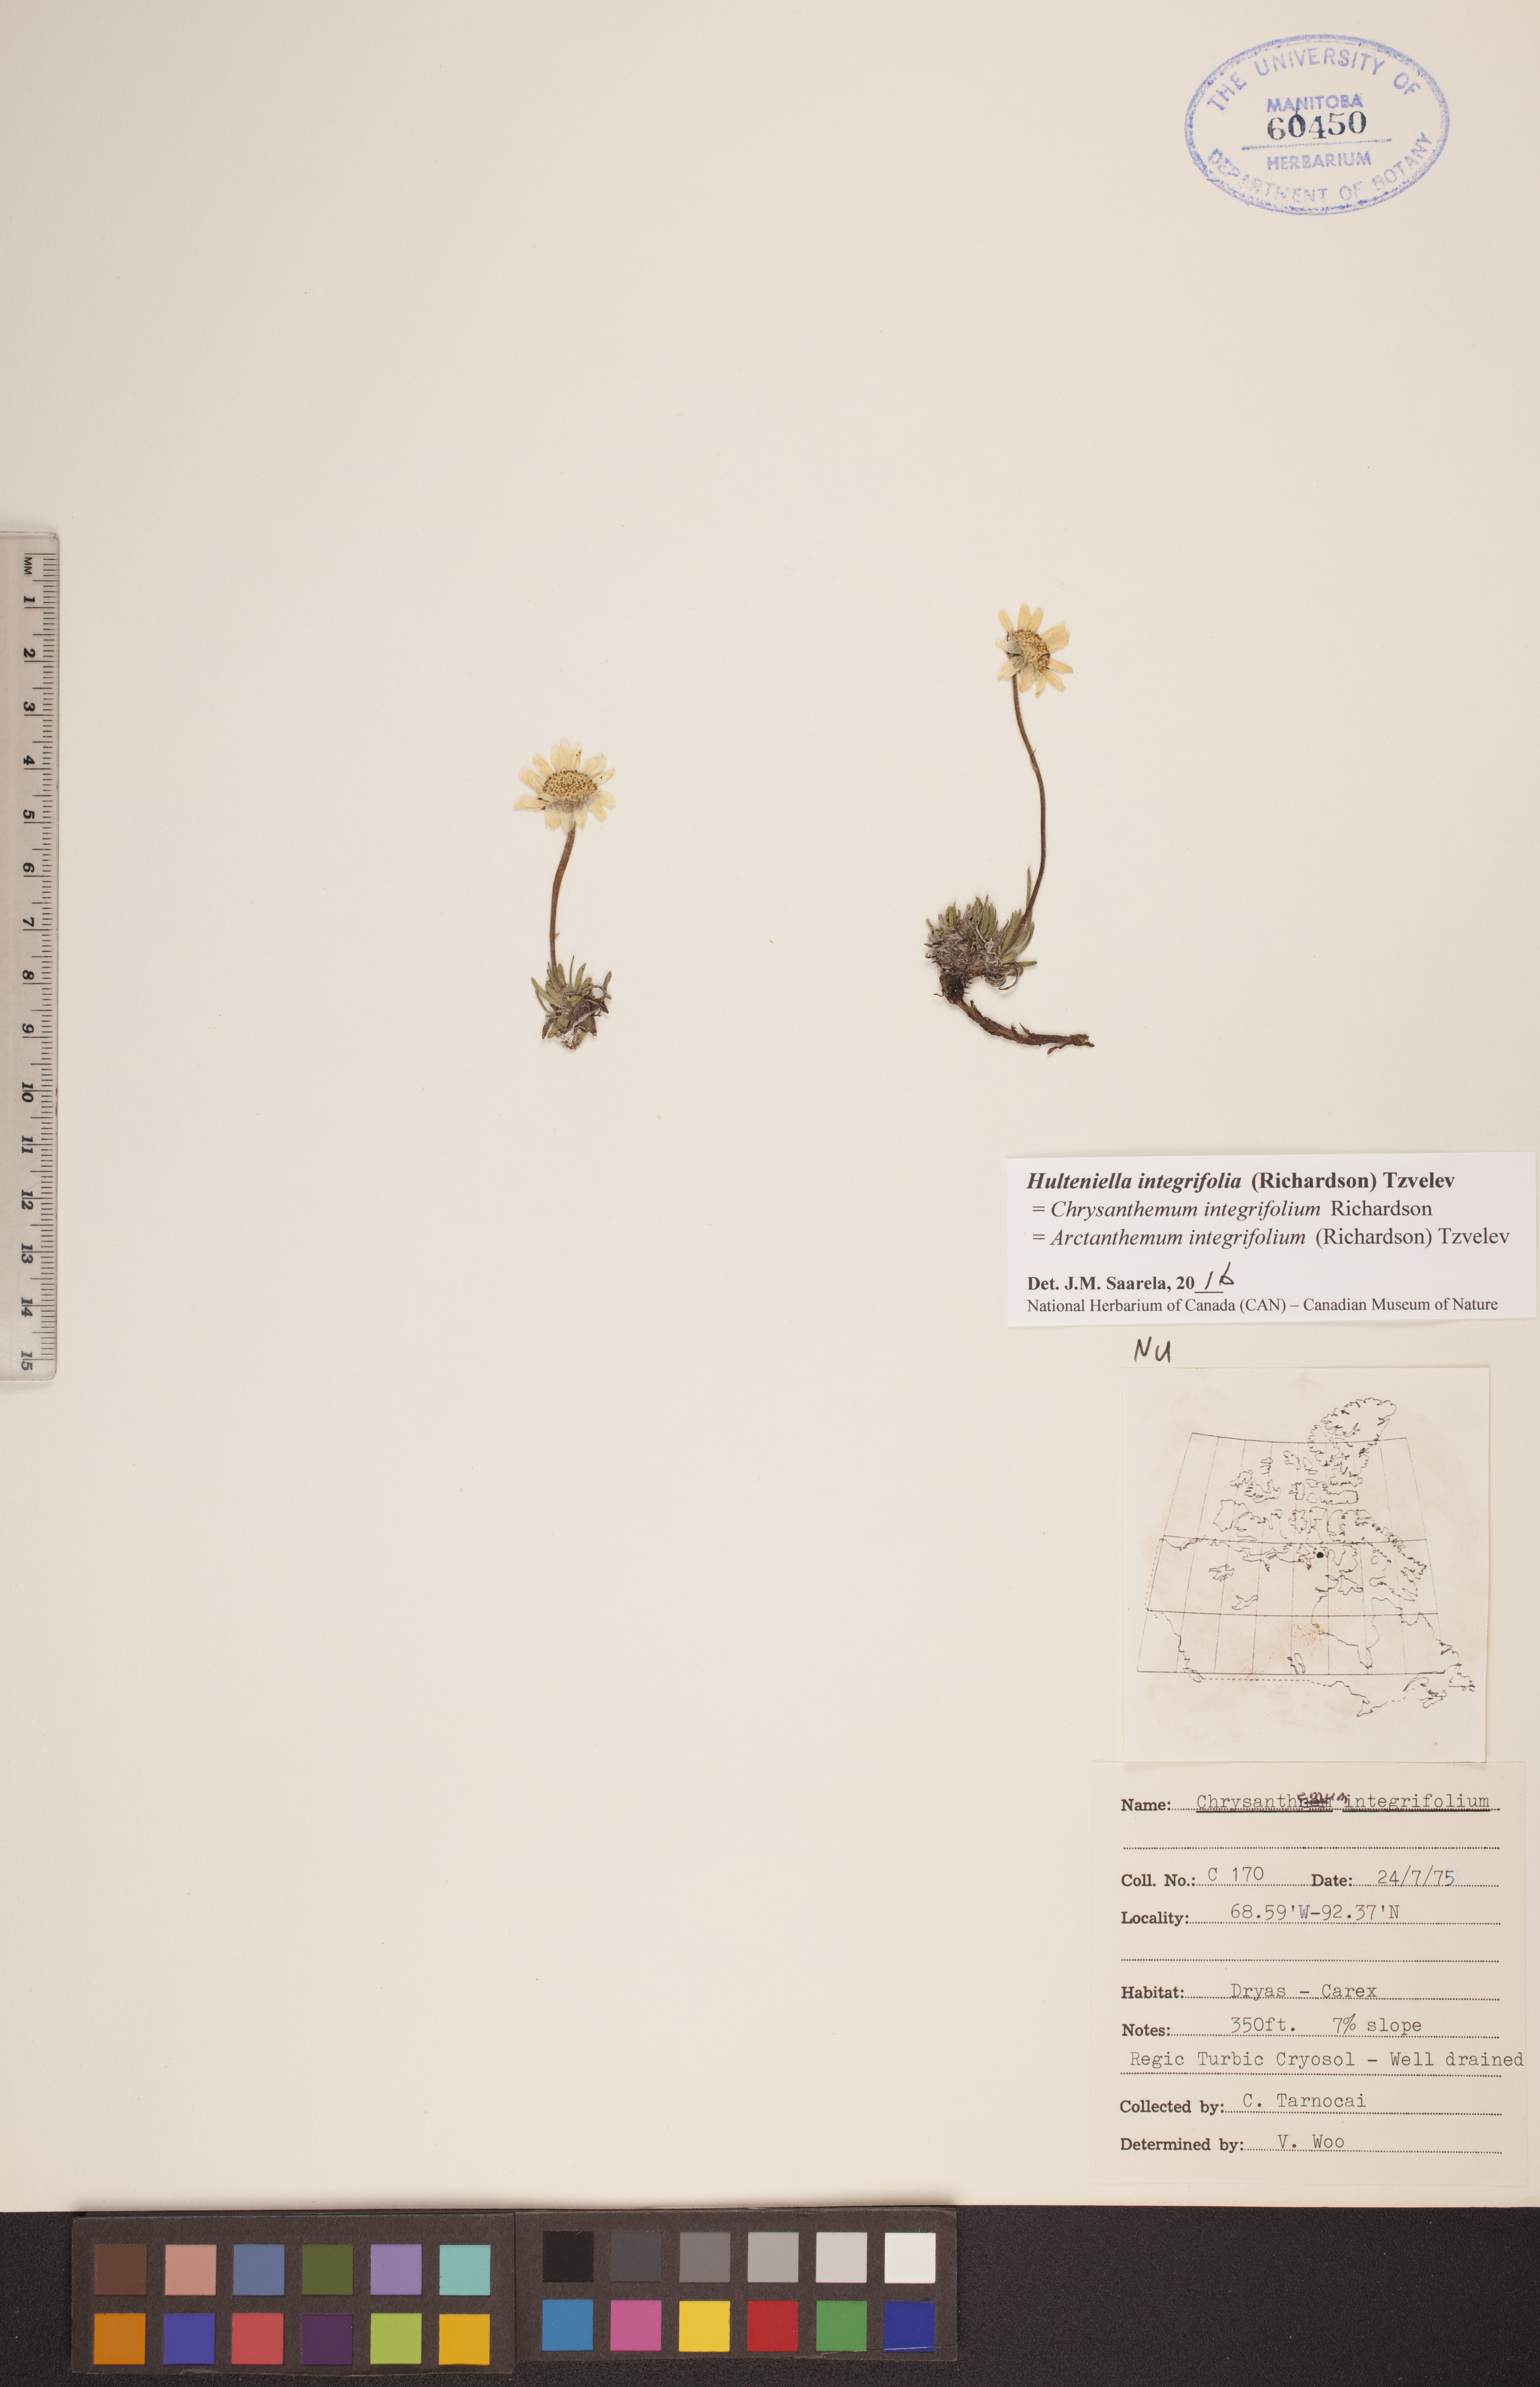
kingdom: Plantae
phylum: Tracheophyta
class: Magnoliopsida
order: Asterales
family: Asteraceae
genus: Arctanthemum
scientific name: Arctanthemum integrifolium
